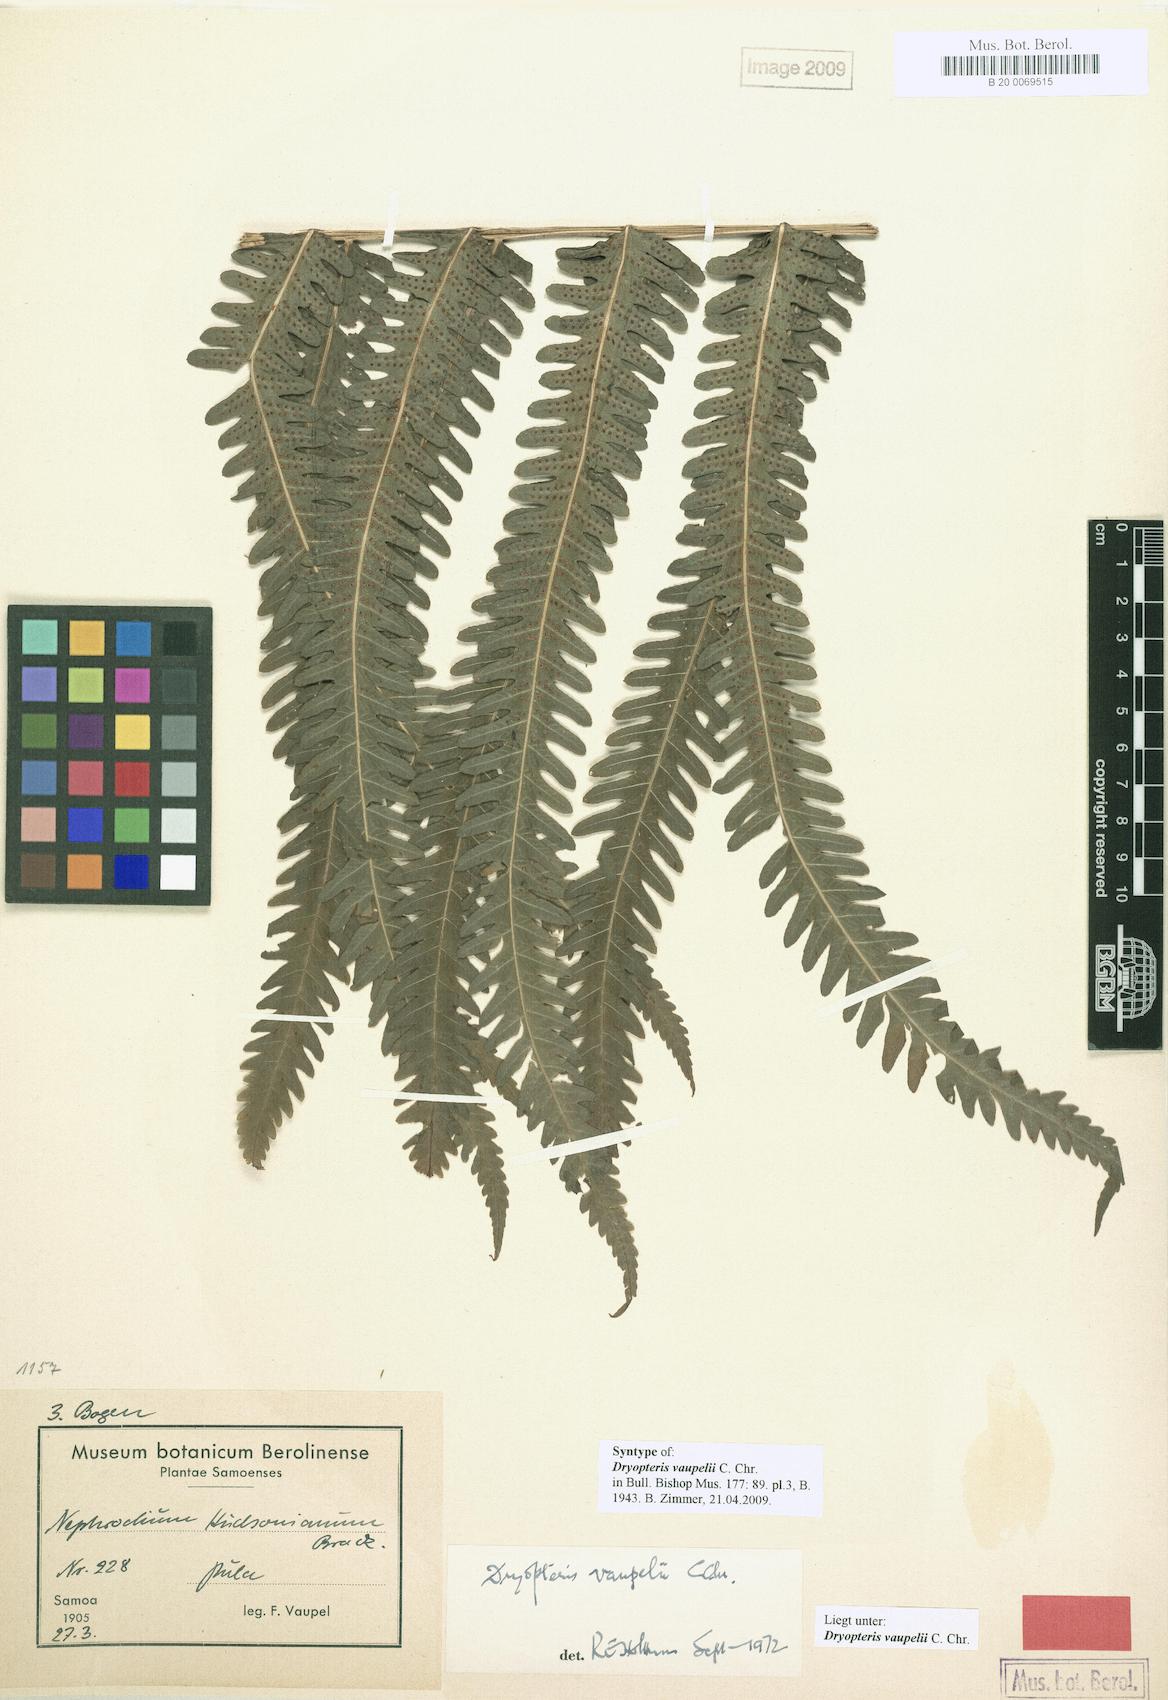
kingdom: Plantae
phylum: Tracheophyta
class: Polypodiopsida
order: Polypodiales
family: Thelypteridaceae
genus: Reholttumia
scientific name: Reholttumia vaupelii
